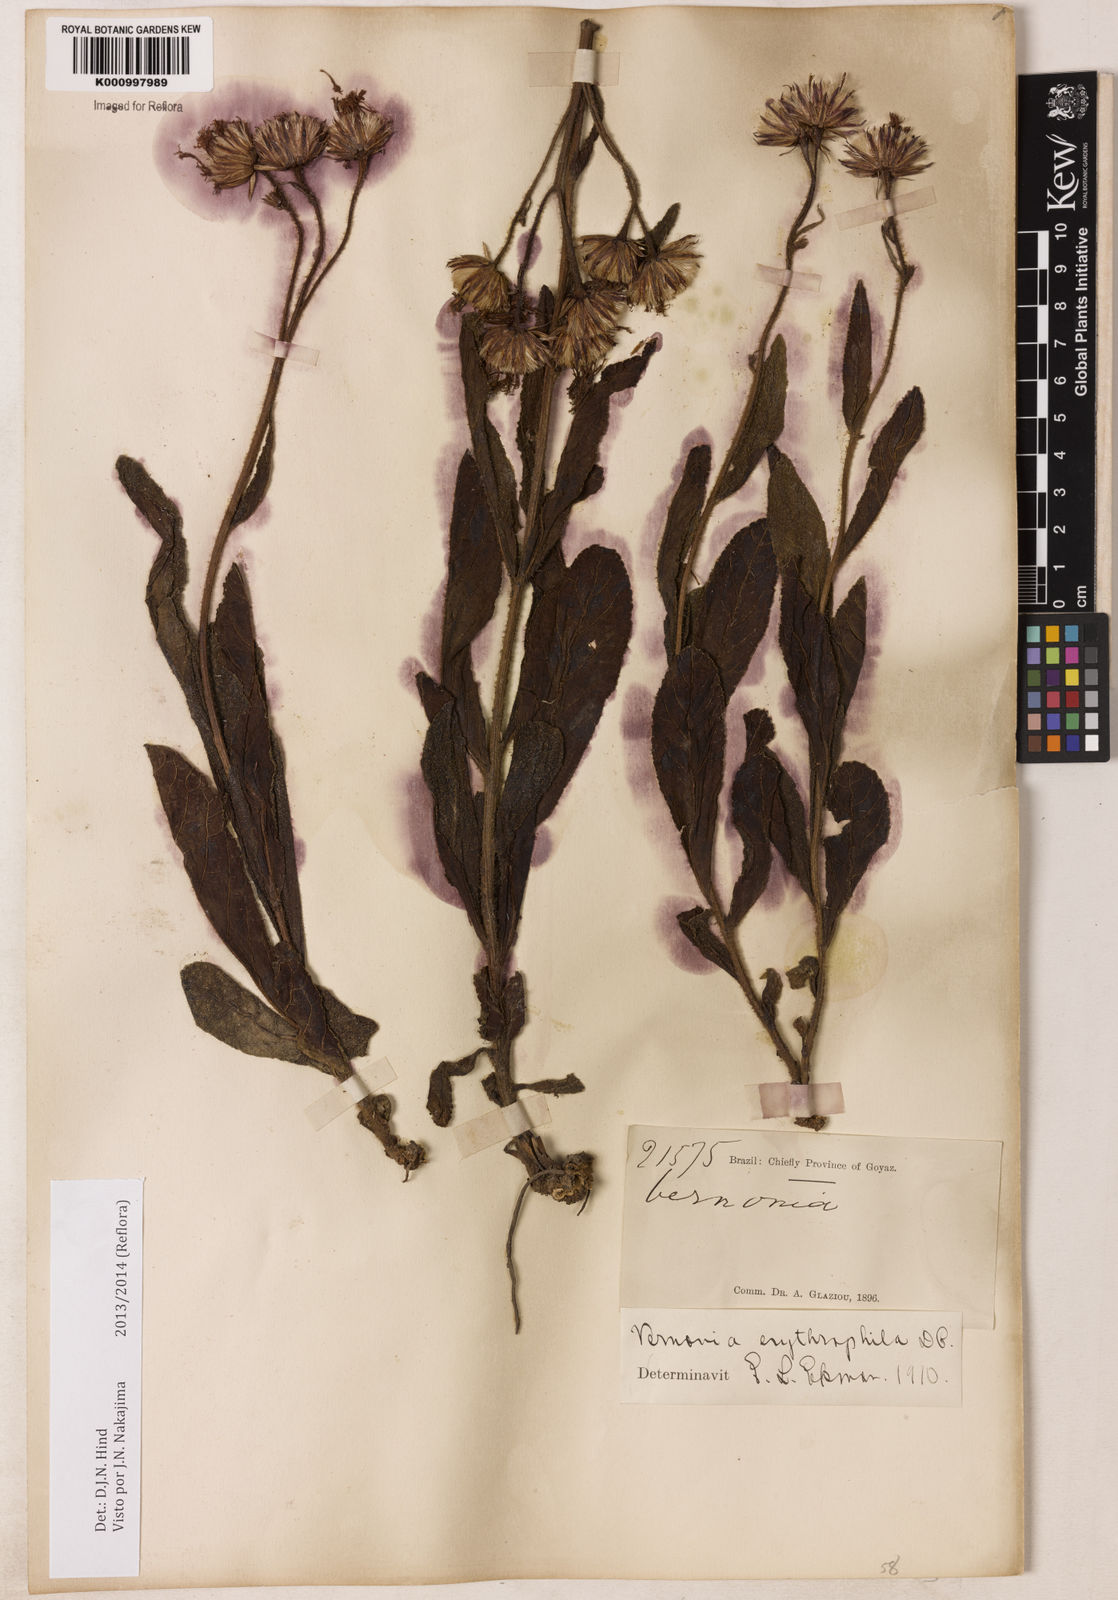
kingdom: Plantae
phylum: Tracheophyta
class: Magnoliopsida
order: Asterales
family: Asteraceae
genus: Lessingianthus
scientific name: Lessingianthus erythrophilus
